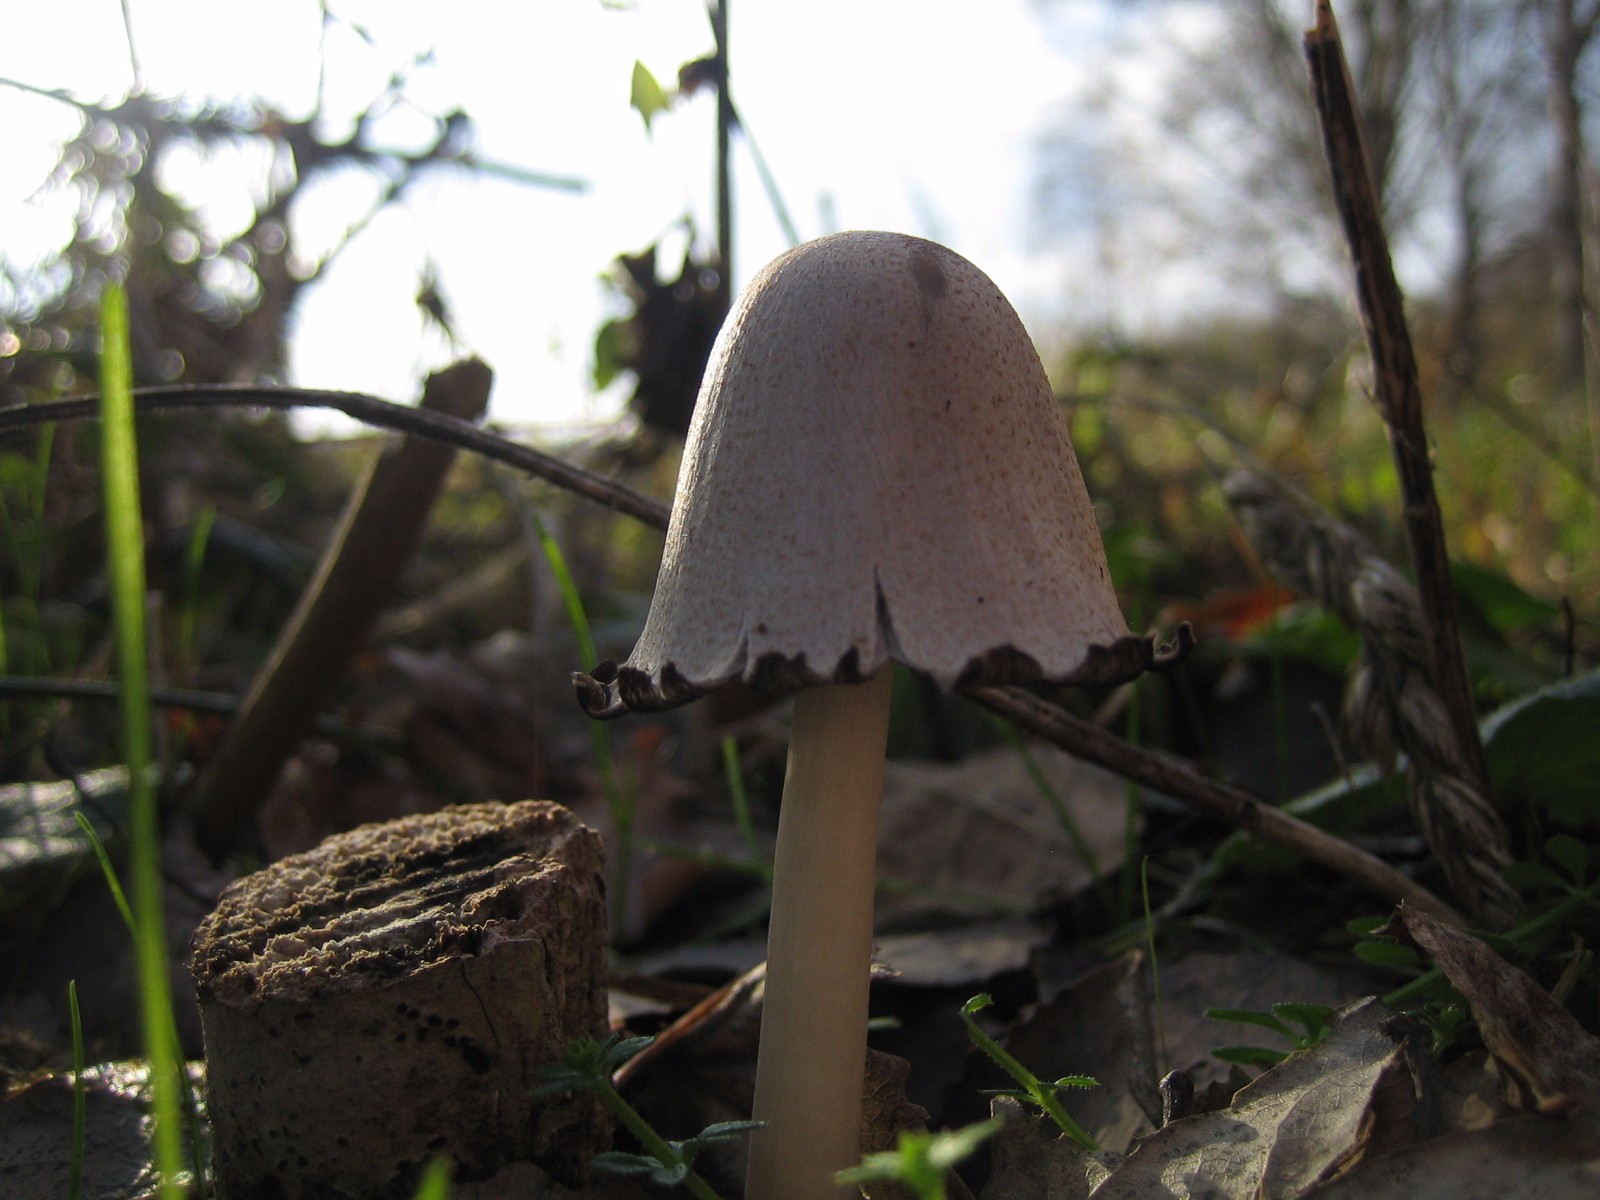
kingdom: Fungi
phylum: Basidiomycota
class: Agaricomycetes
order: Agaricales
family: Psathyrellaceae
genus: Coprinopsis
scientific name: Coprinopsis atramentaria
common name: almindelig blækhat
